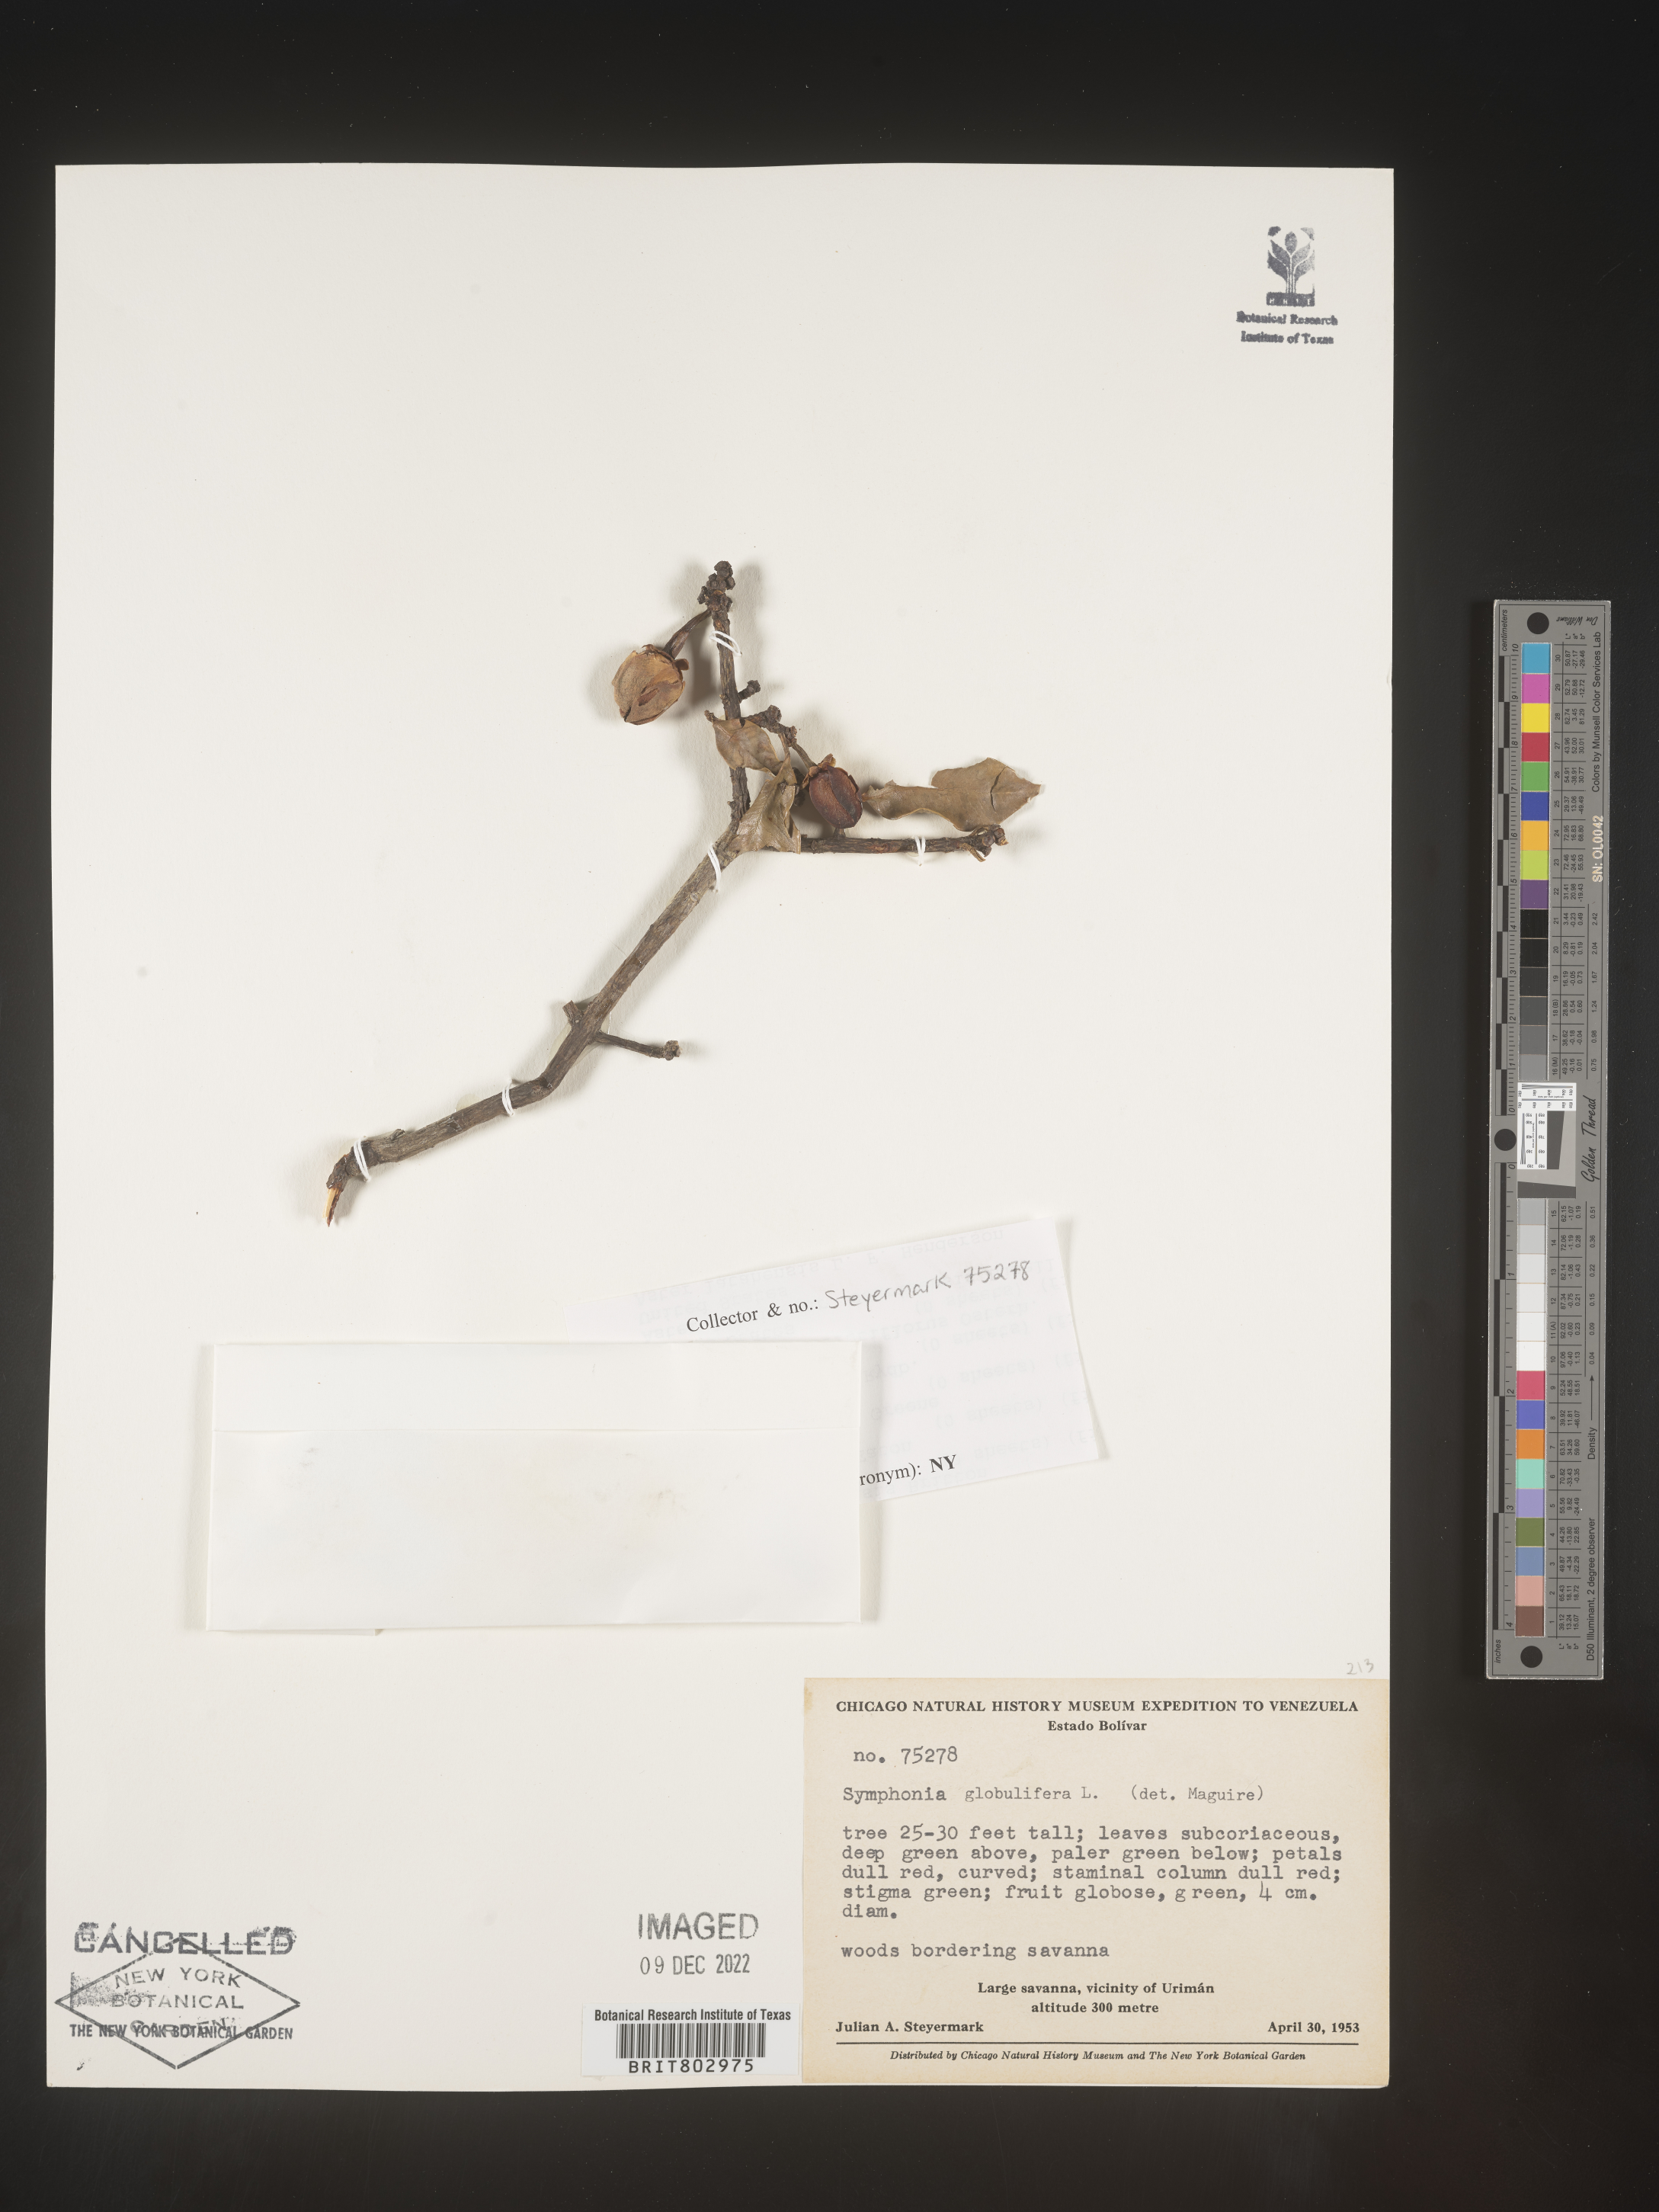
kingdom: Plantae
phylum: Tracheophyta
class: Magnoliopsida
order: Malpighiales
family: Clusiaceae
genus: Symphonia
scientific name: Symphonia globulifera
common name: Boarwood
